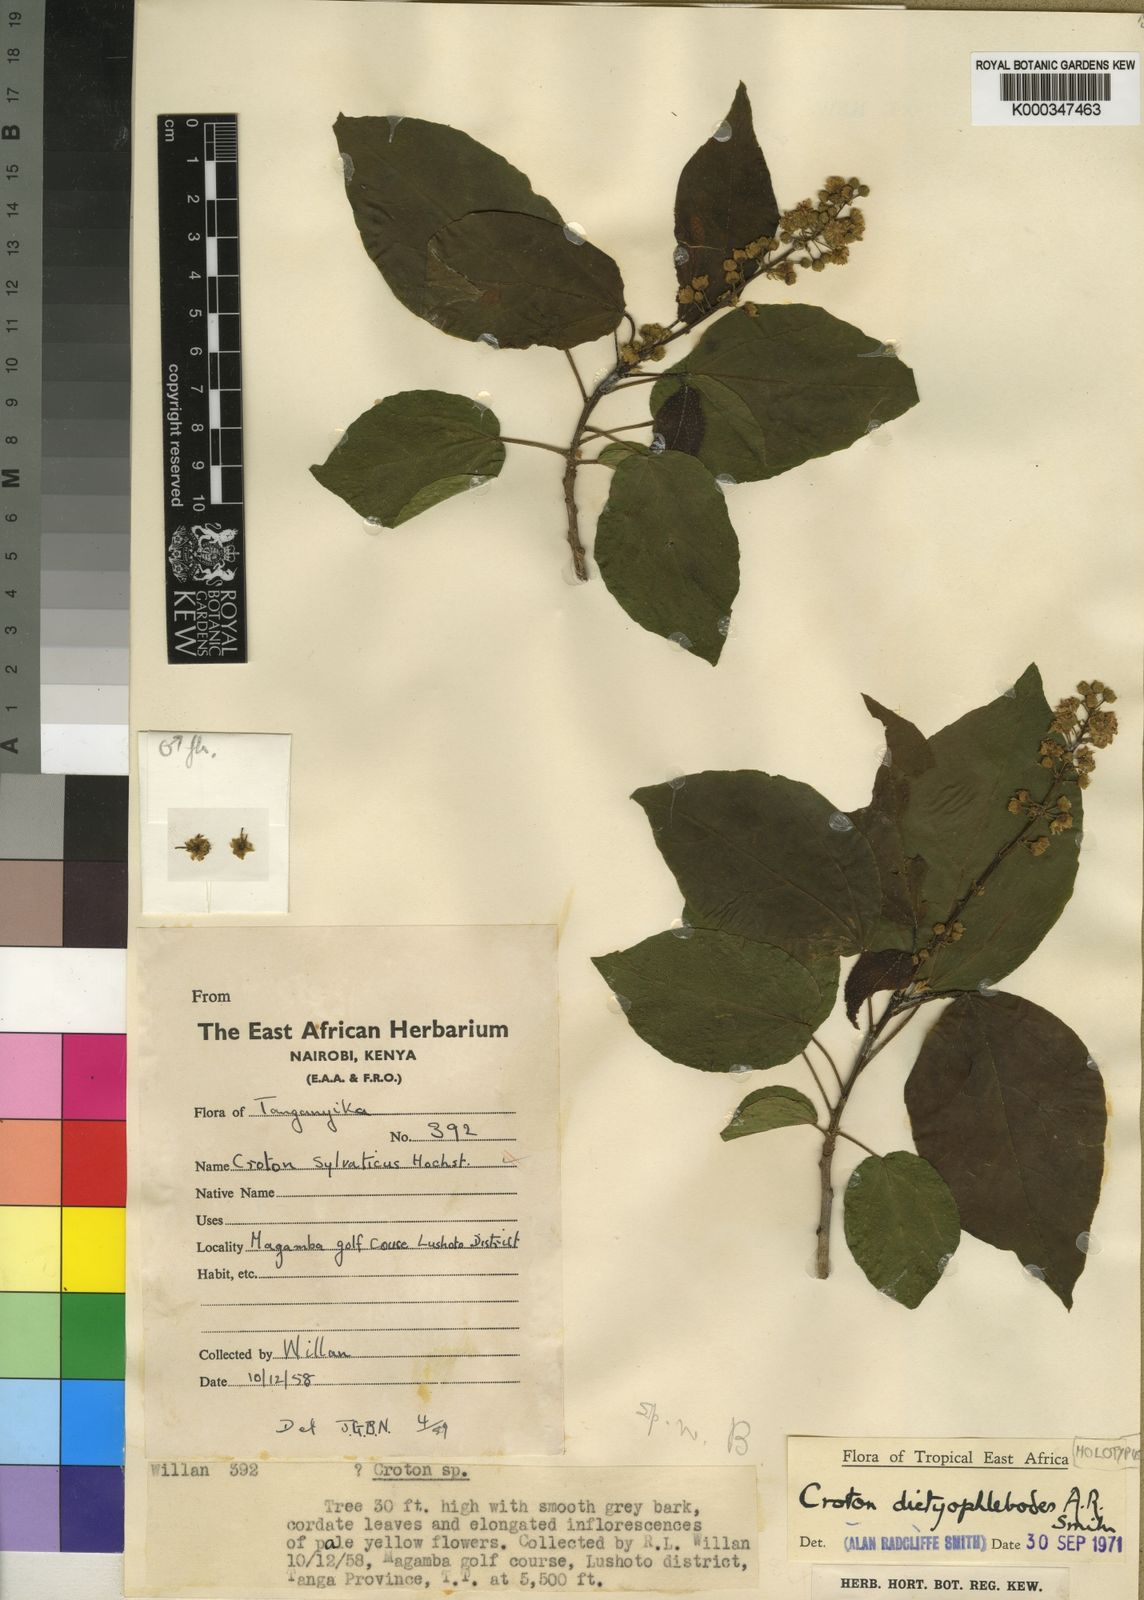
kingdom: Plantae
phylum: Tracheophyta
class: Magnoliopsida
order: Malpighiales
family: Euphorbiaceae
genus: Croton
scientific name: Croton dictyophlebodes
